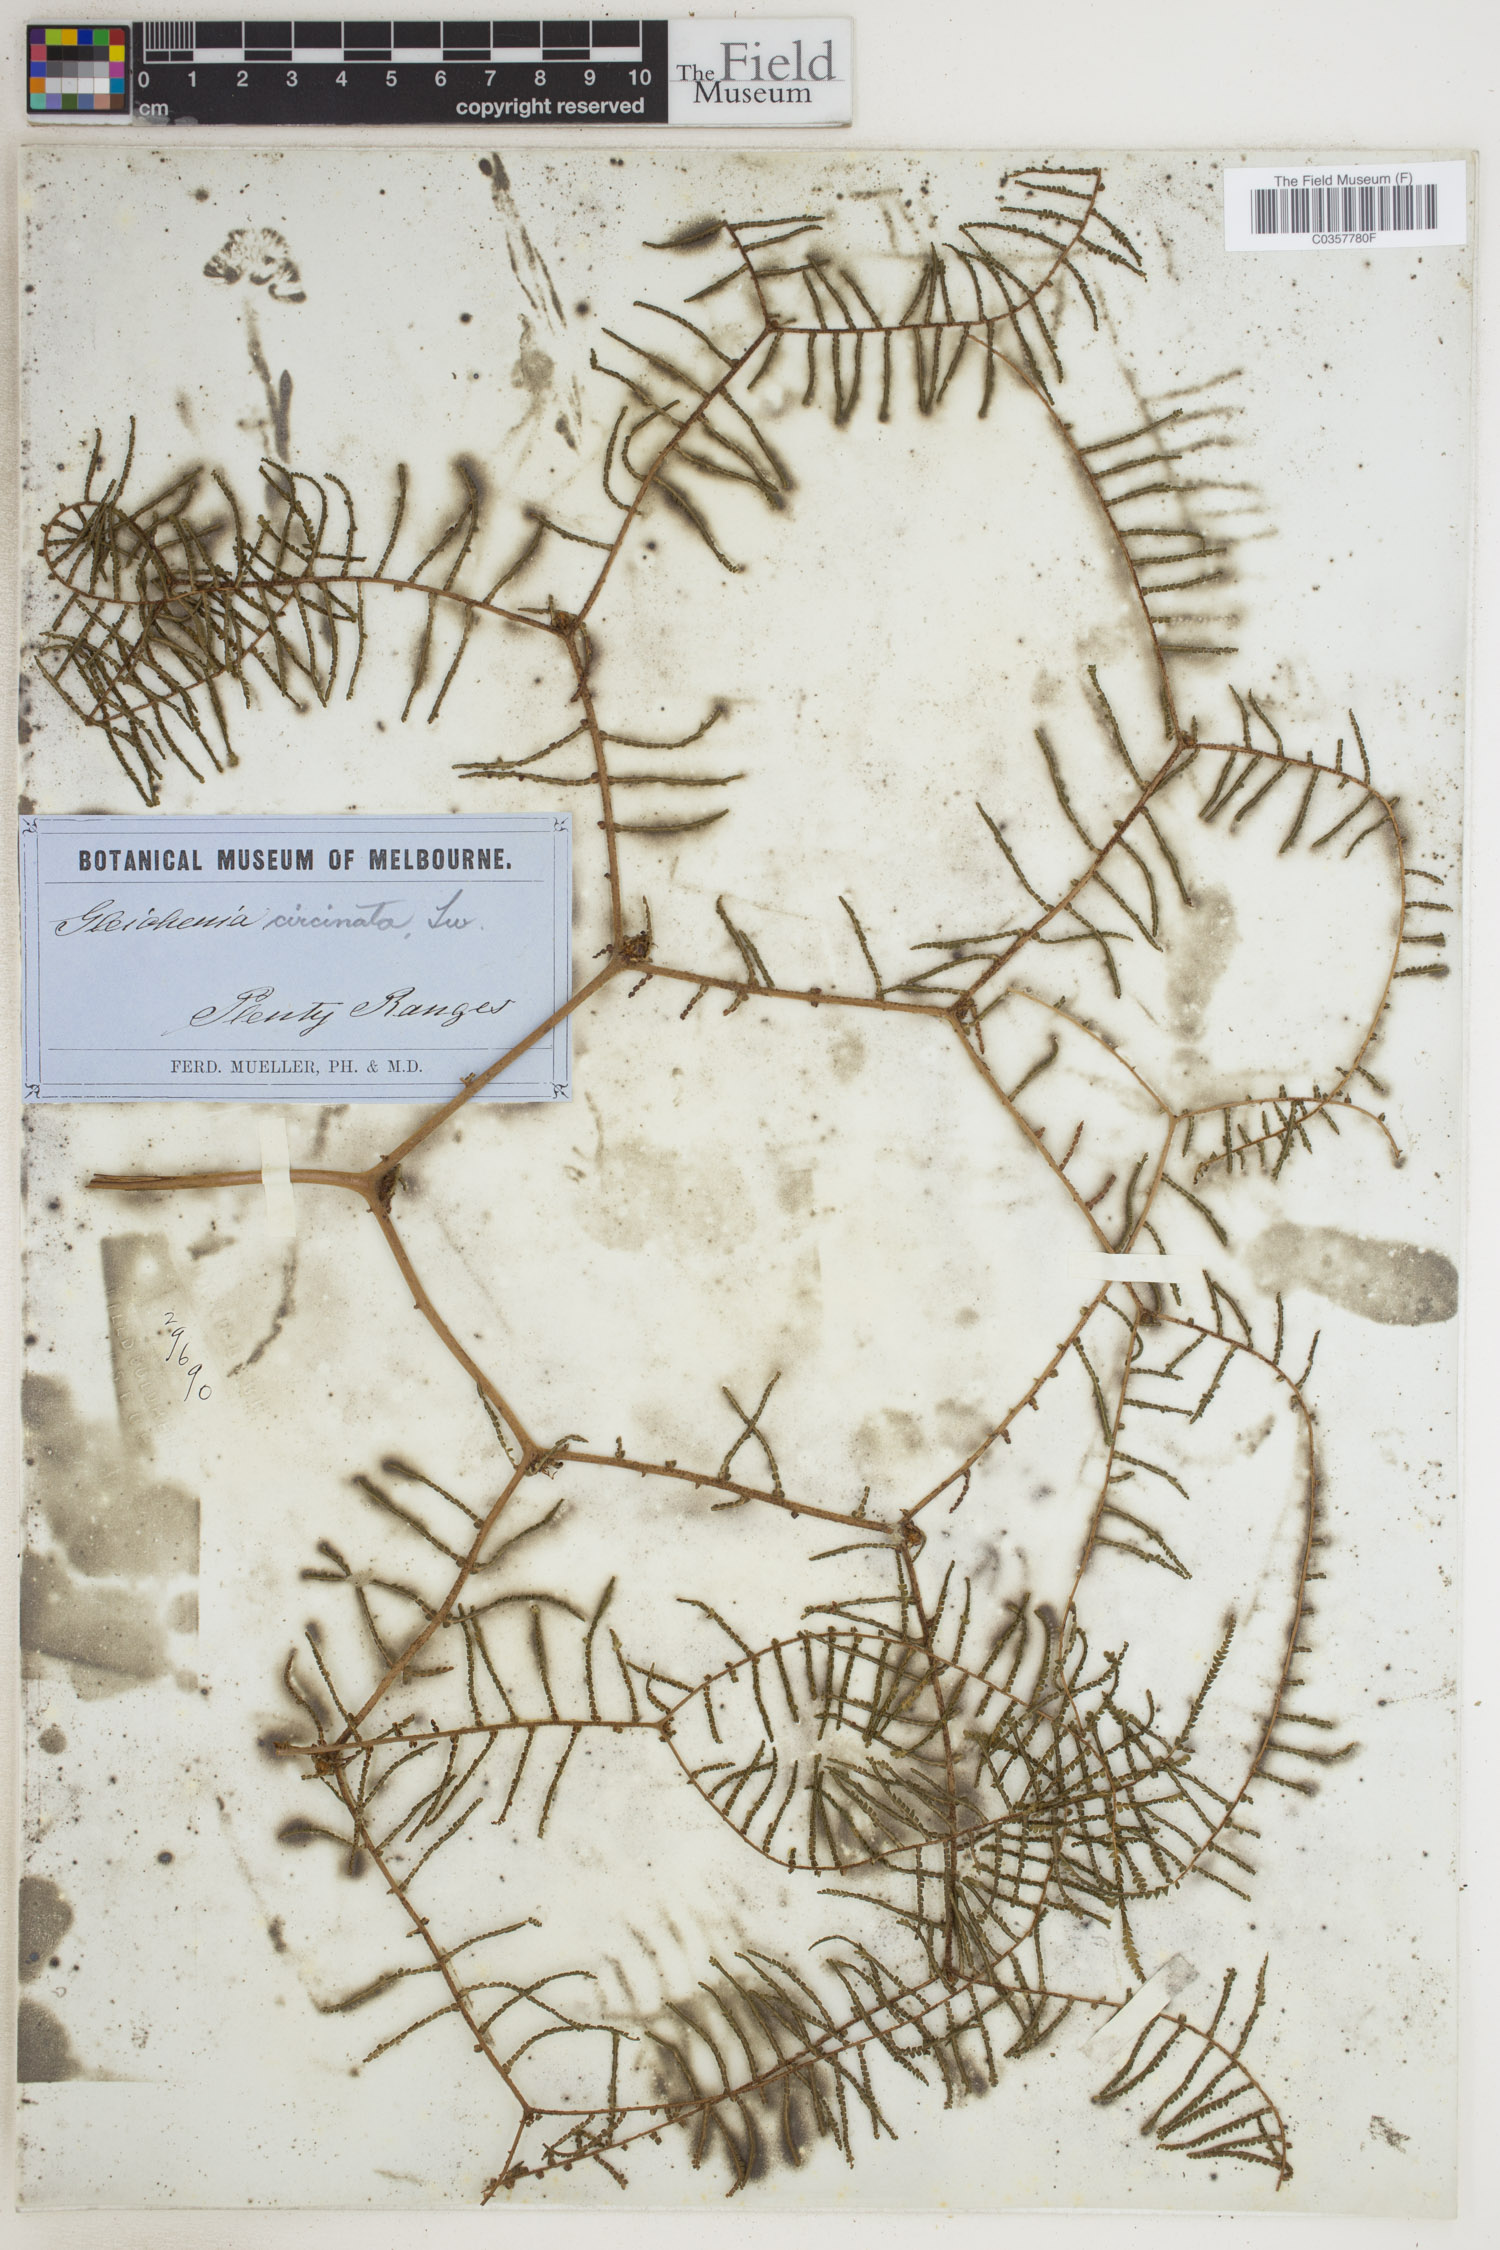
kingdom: Plantae
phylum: Tracheophyta
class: Polypodiopsida
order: Gleicheniales
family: Gleicheniaceae
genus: Gleichenia
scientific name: Gleichenia circinnata
